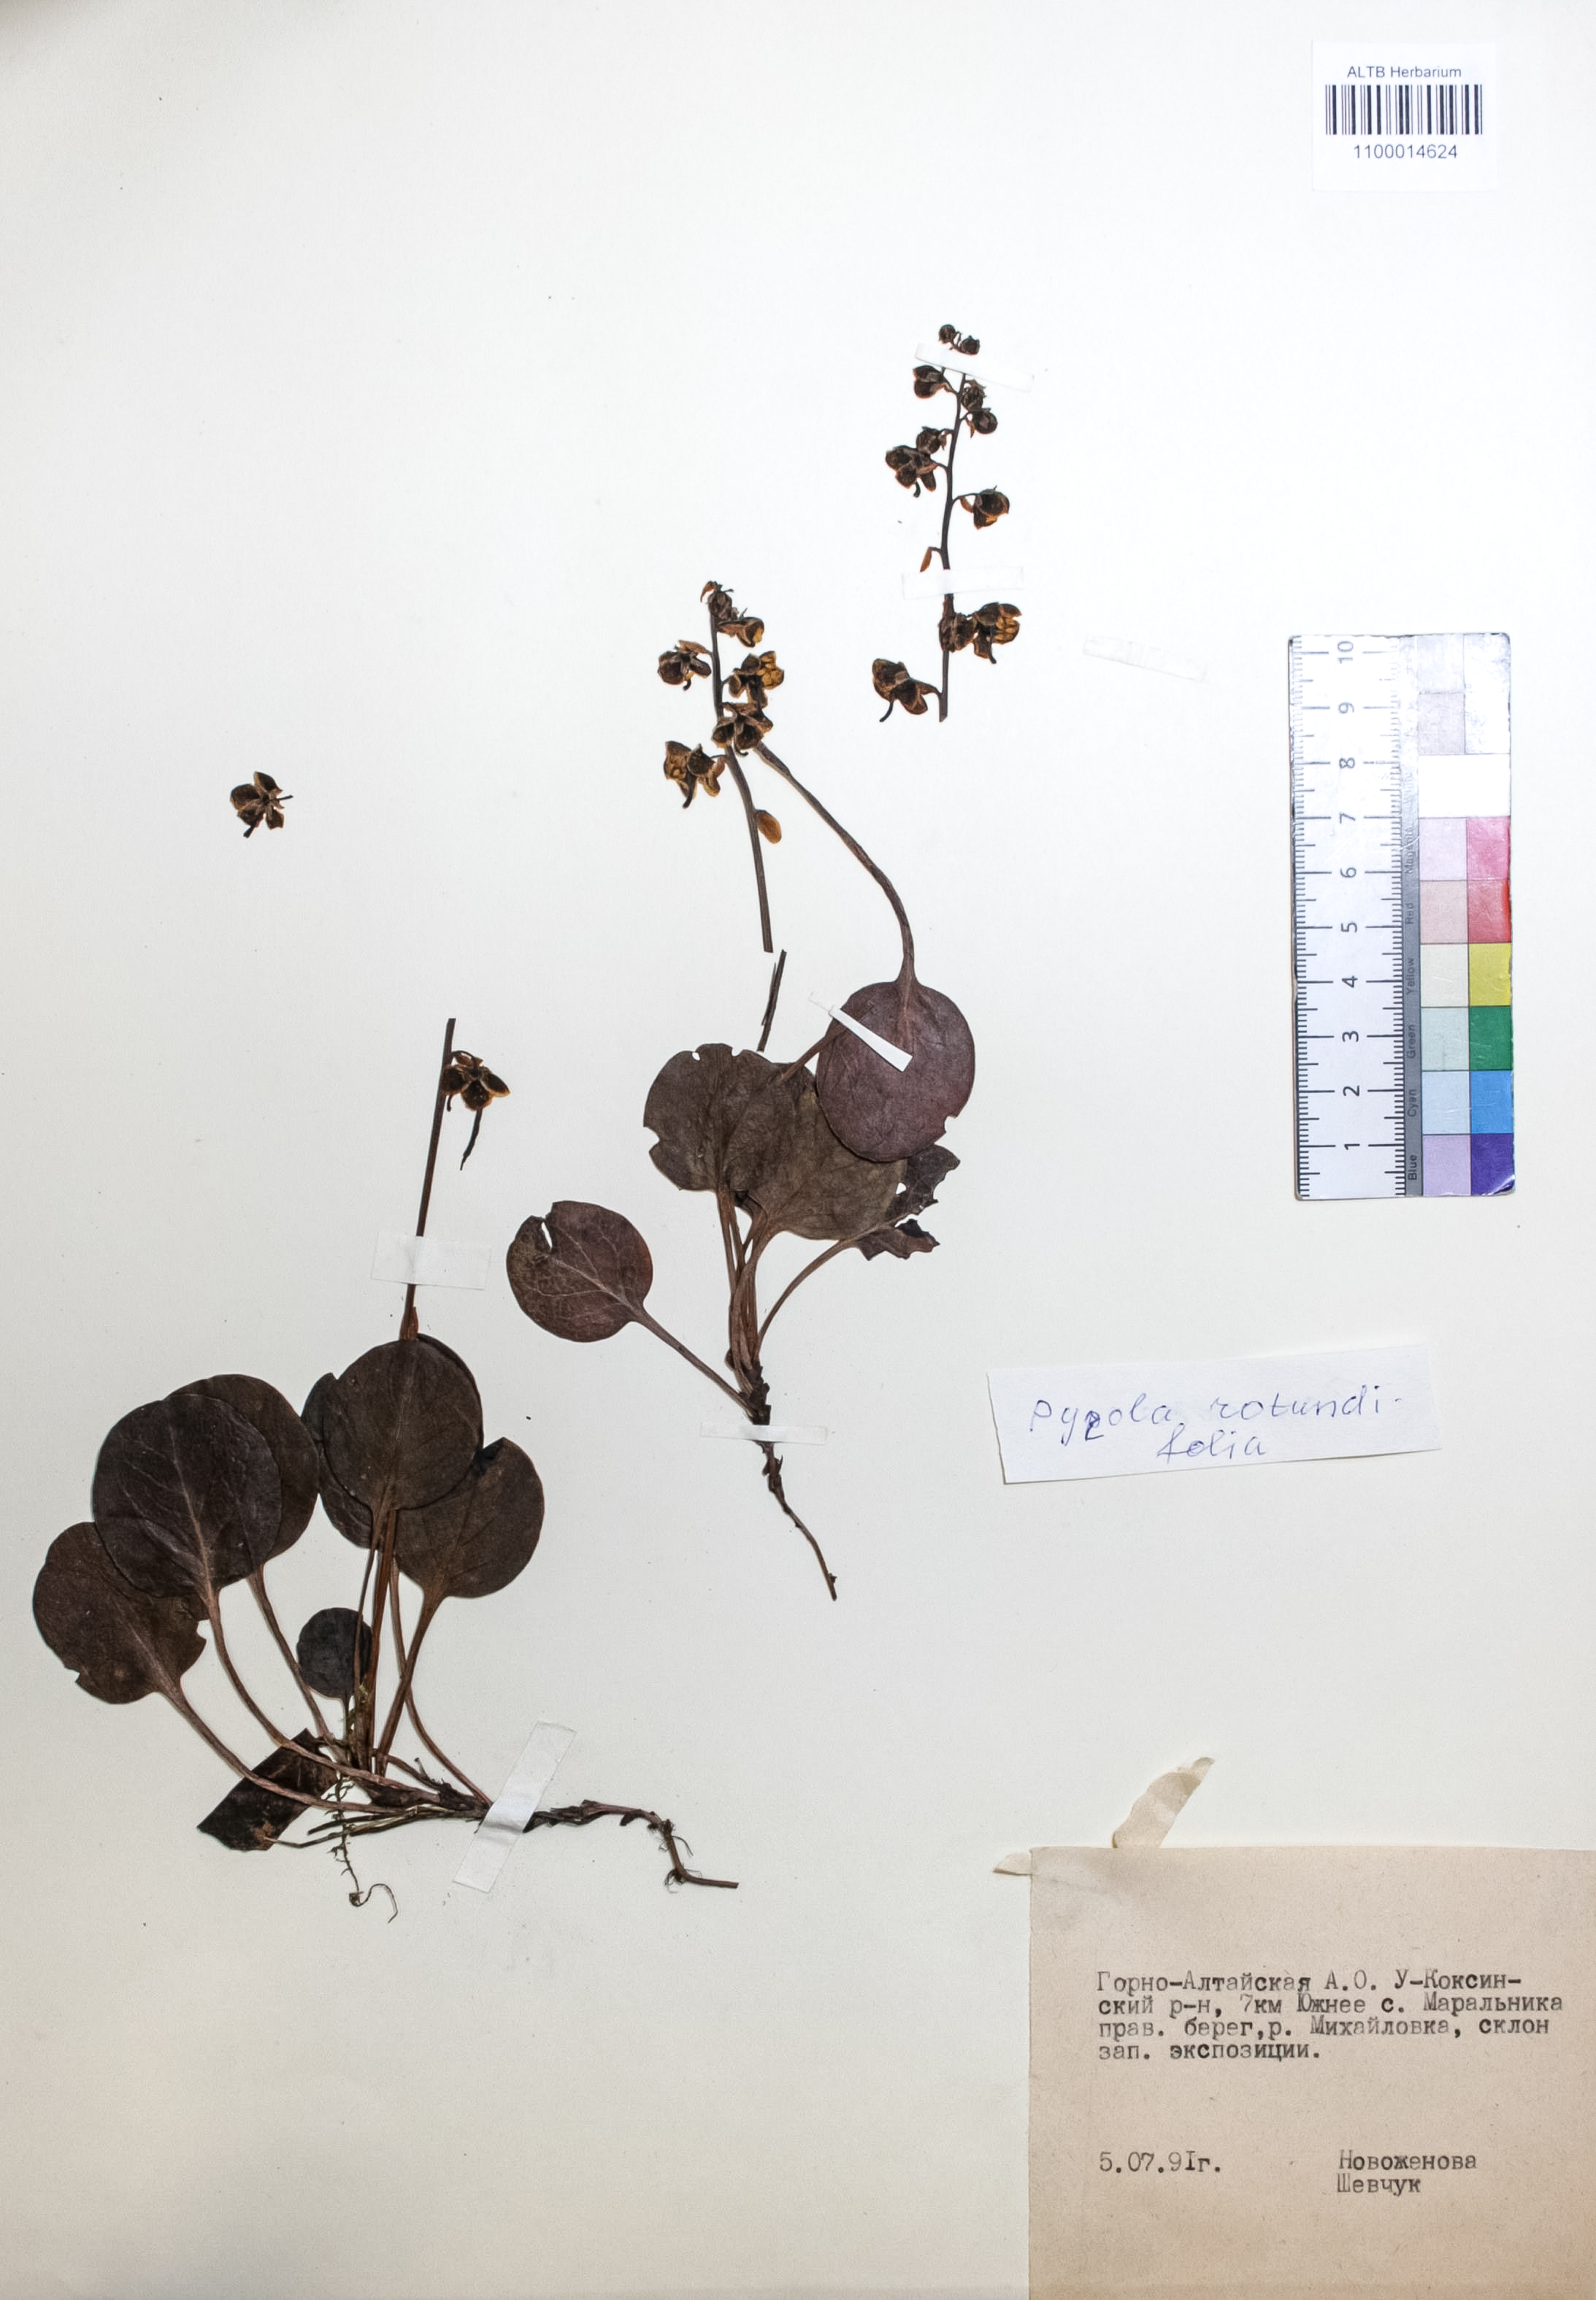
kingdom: Plantae
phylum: Tracheophyta
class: Magnoliopsida
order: Ericales
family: Ericaceae
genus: Pyrola
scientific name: Pyrola rotundifolia
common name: Round-leaved wintergreen
